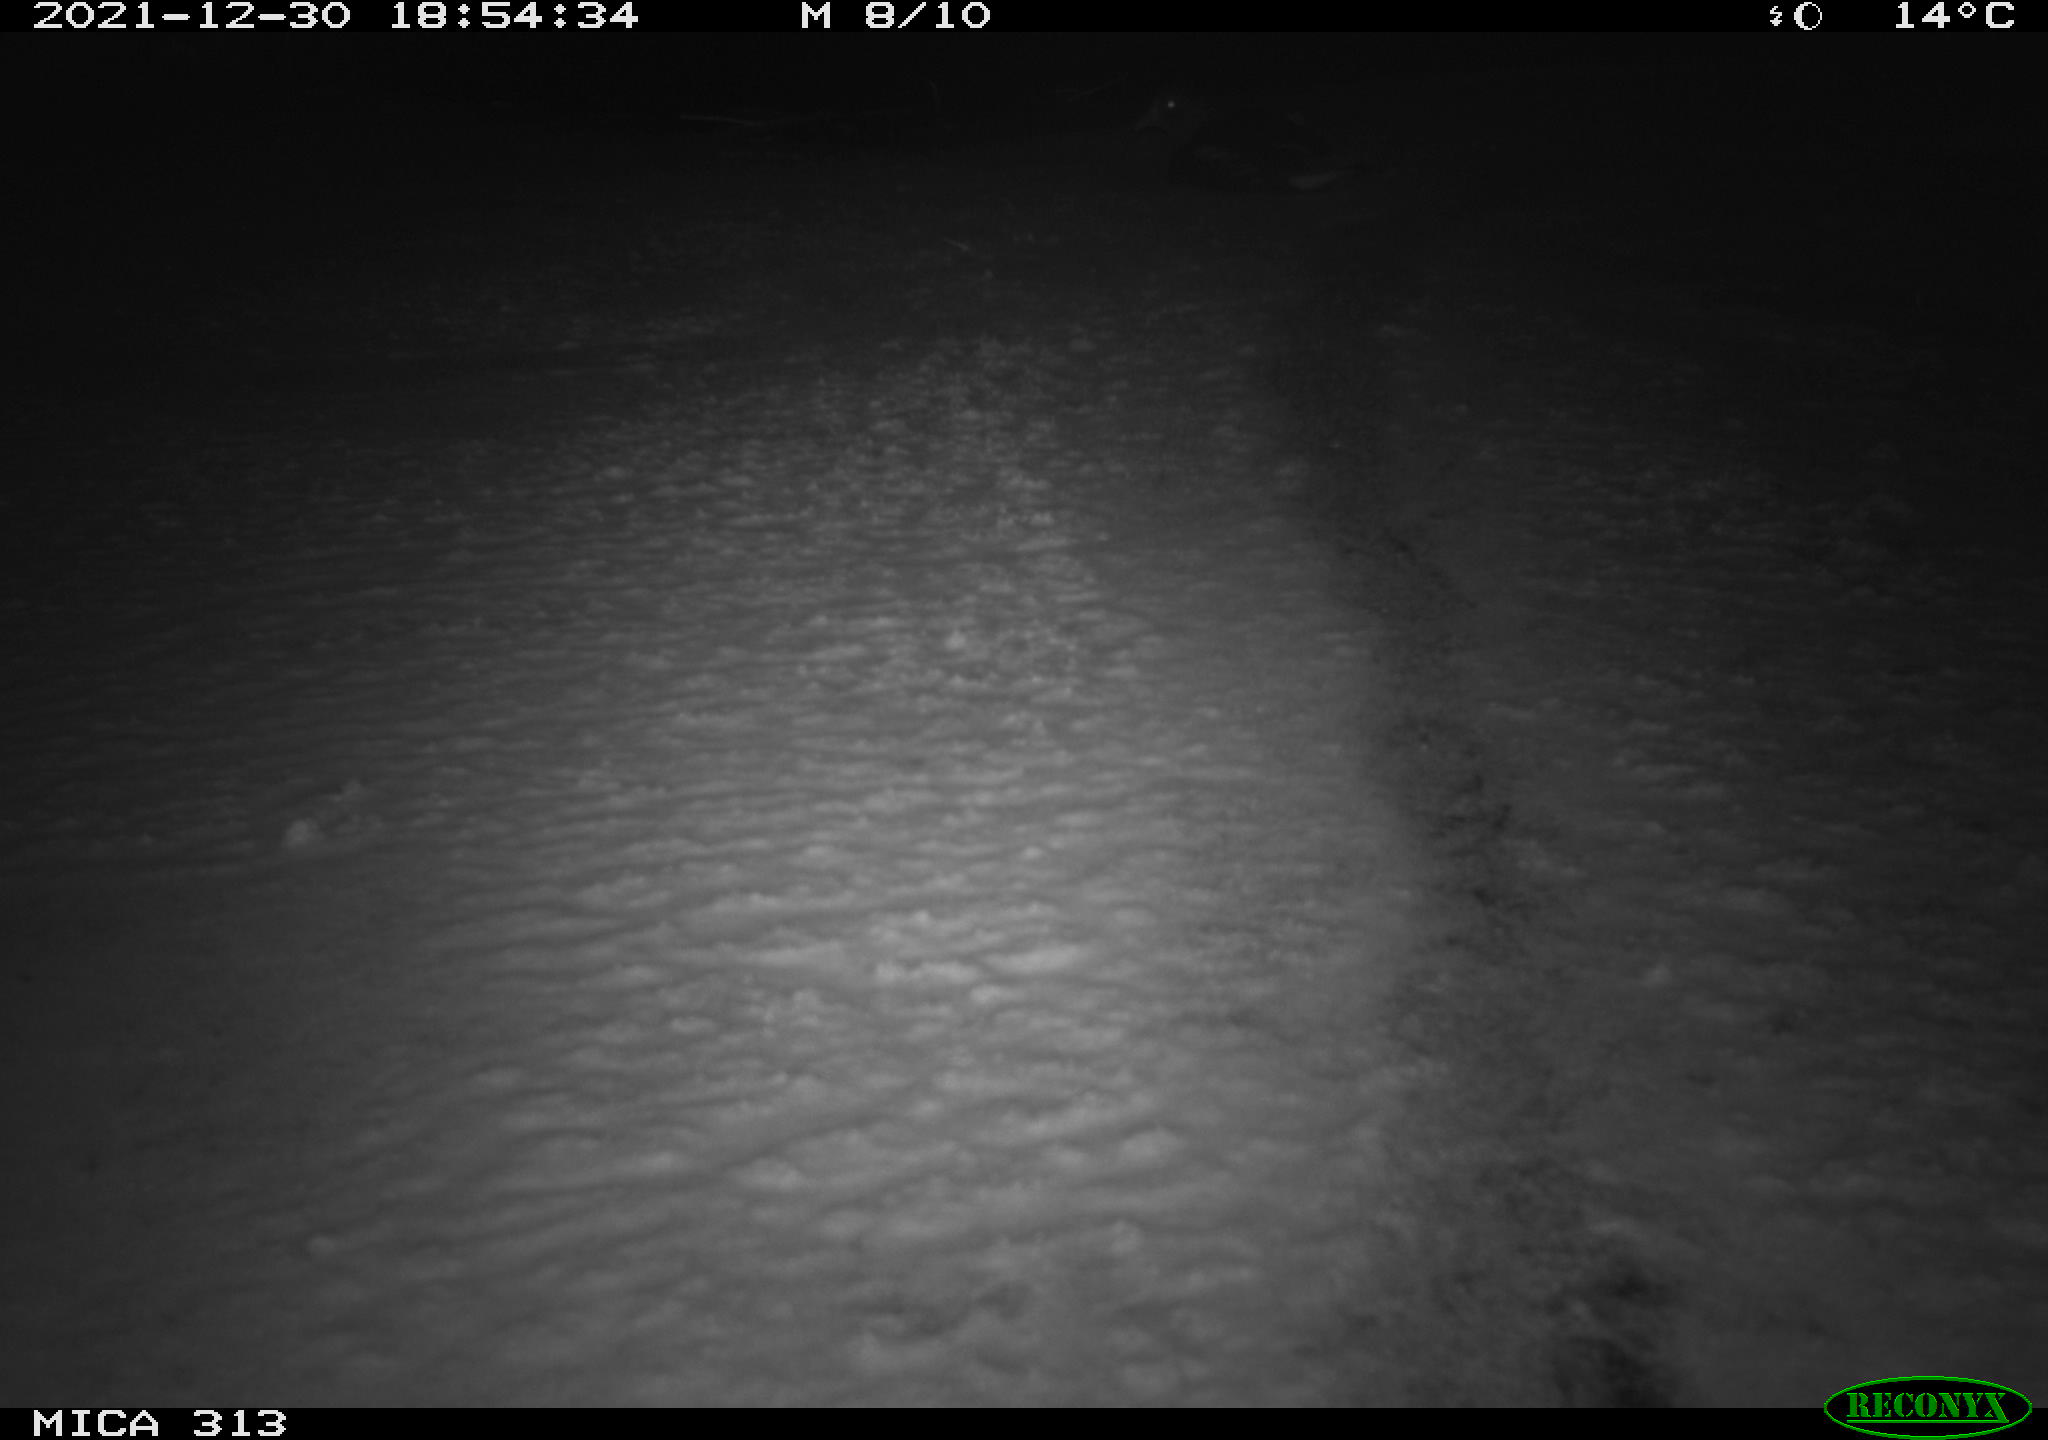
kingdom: Animalia
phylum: Chordata
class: Aves
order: Gruiformes
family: Rallidae
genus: Gallinula
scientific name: Gallinula chloropus
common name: Common moorhen
